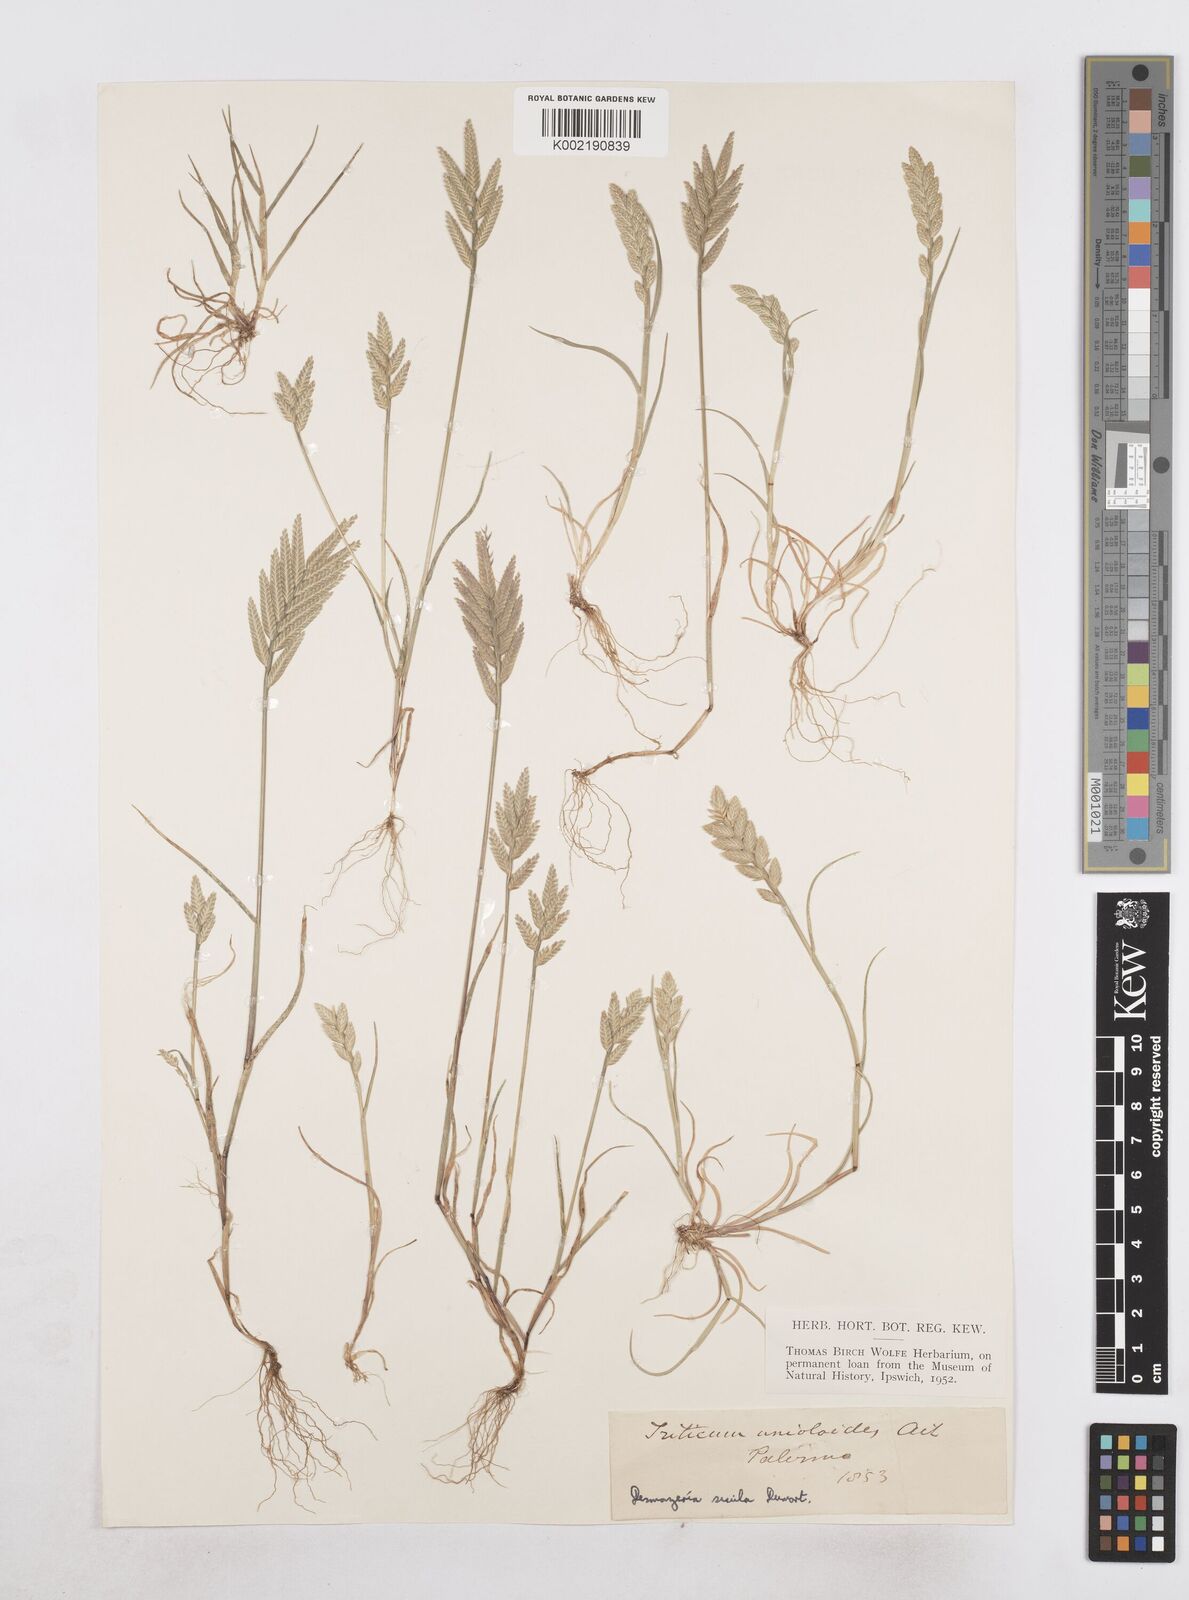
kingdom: Plantae
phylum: Tracheophyta
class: Liliopsida
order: Poales
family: Poaceae
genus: Desmazeria
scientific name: Desmazeria sicula
